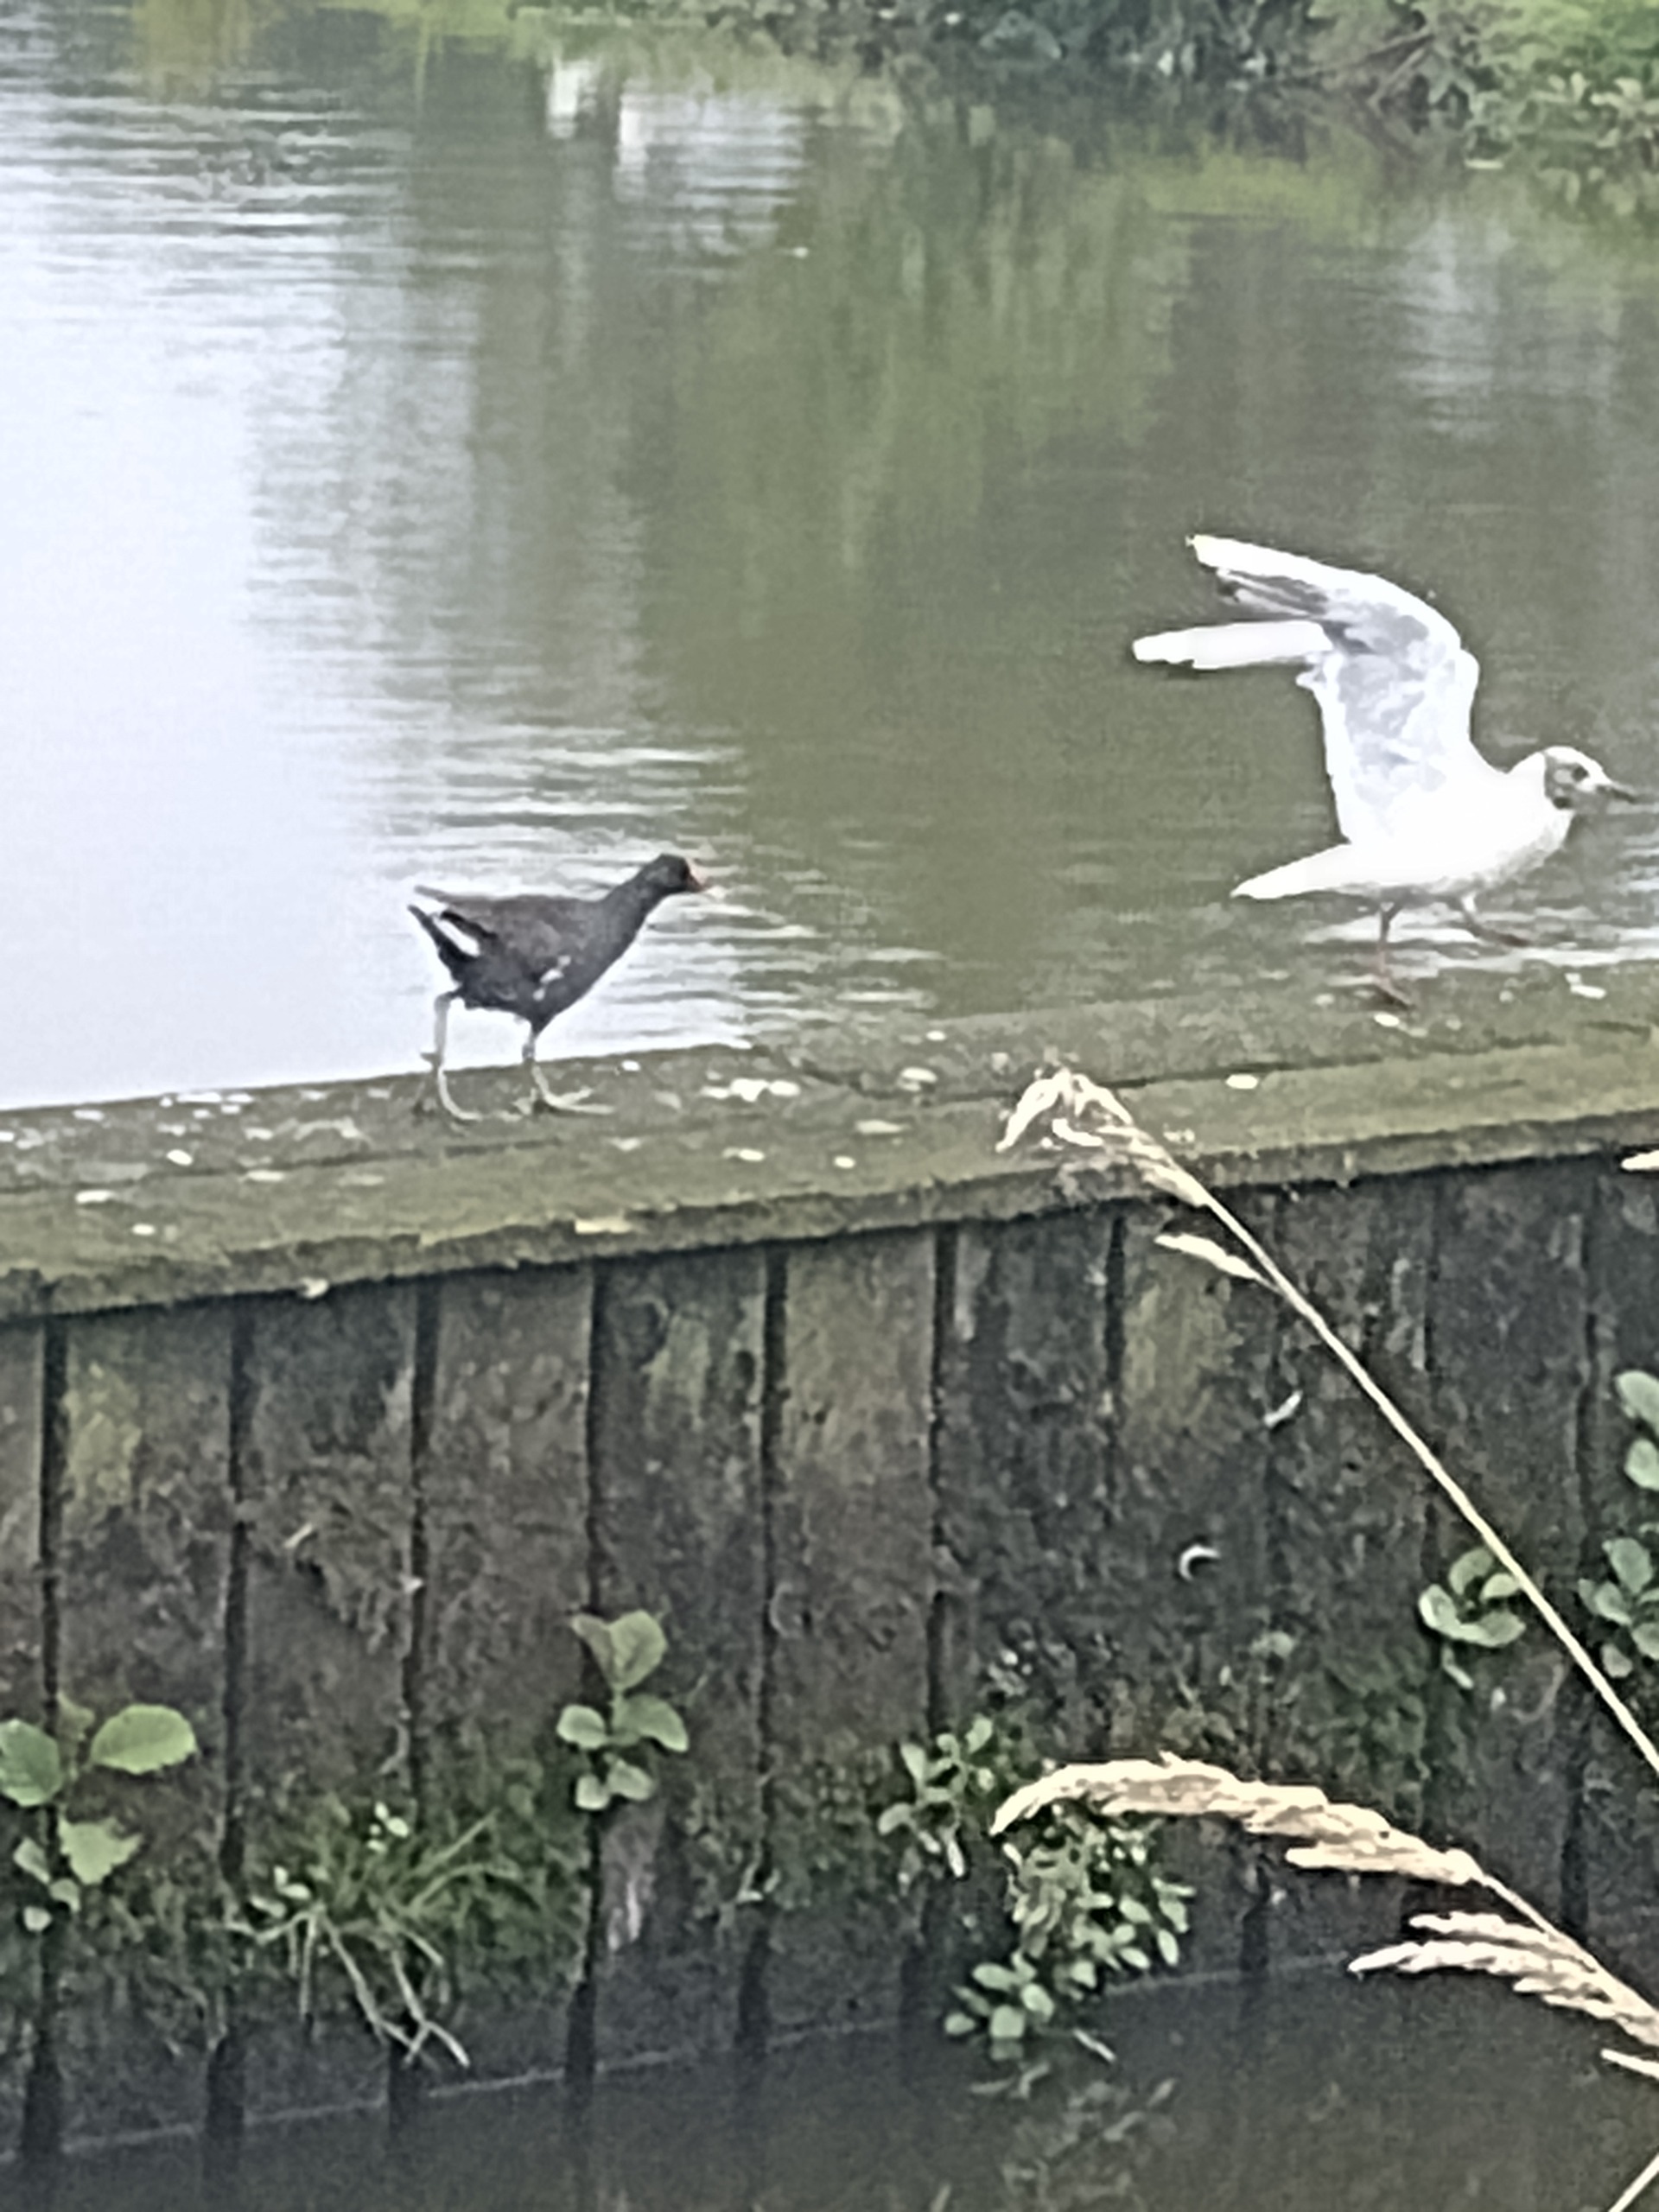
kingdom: Animalia
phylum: Chordata
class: Aves
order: Gruiformes
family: Rallidae
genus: Gallinula
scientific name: Gallinula chloropus
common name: Grønbenet rørhøne
